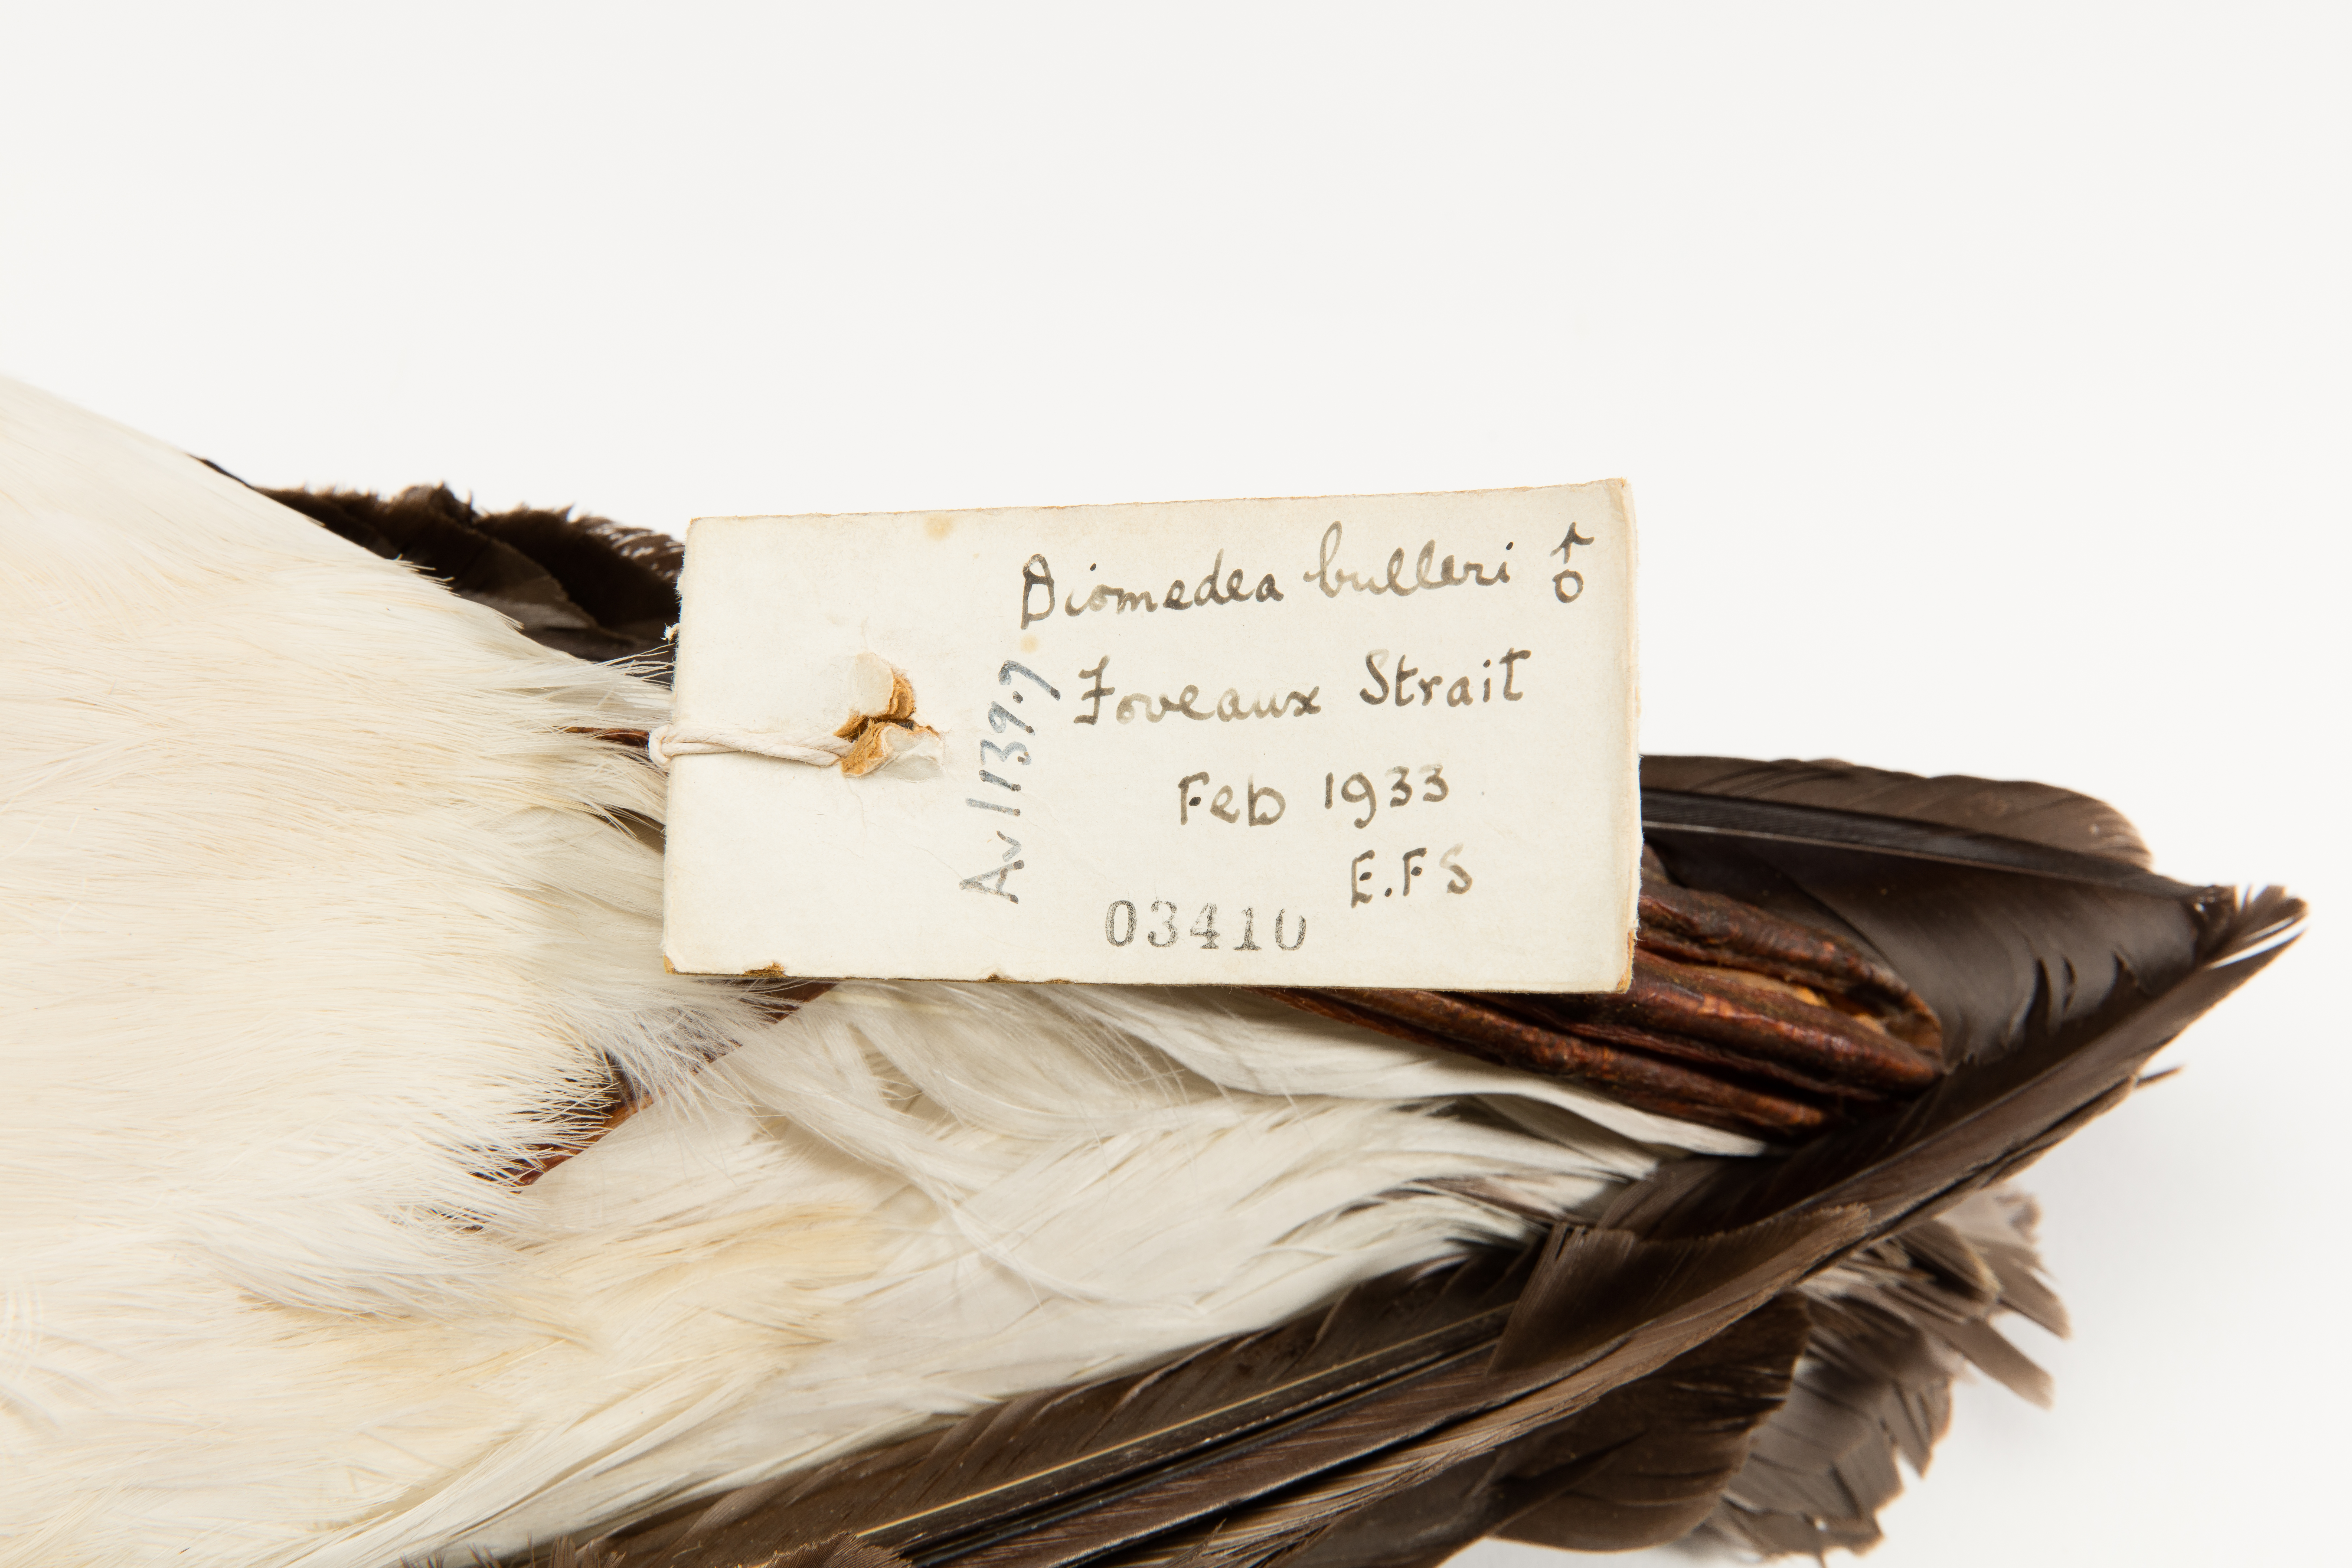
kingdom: Animalia
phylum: Chordata
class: Aves
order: Procellariiformes
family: Diomedeidae
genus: Thalassarche
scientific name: Thalassarche bulleri
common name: Buller's albatross
